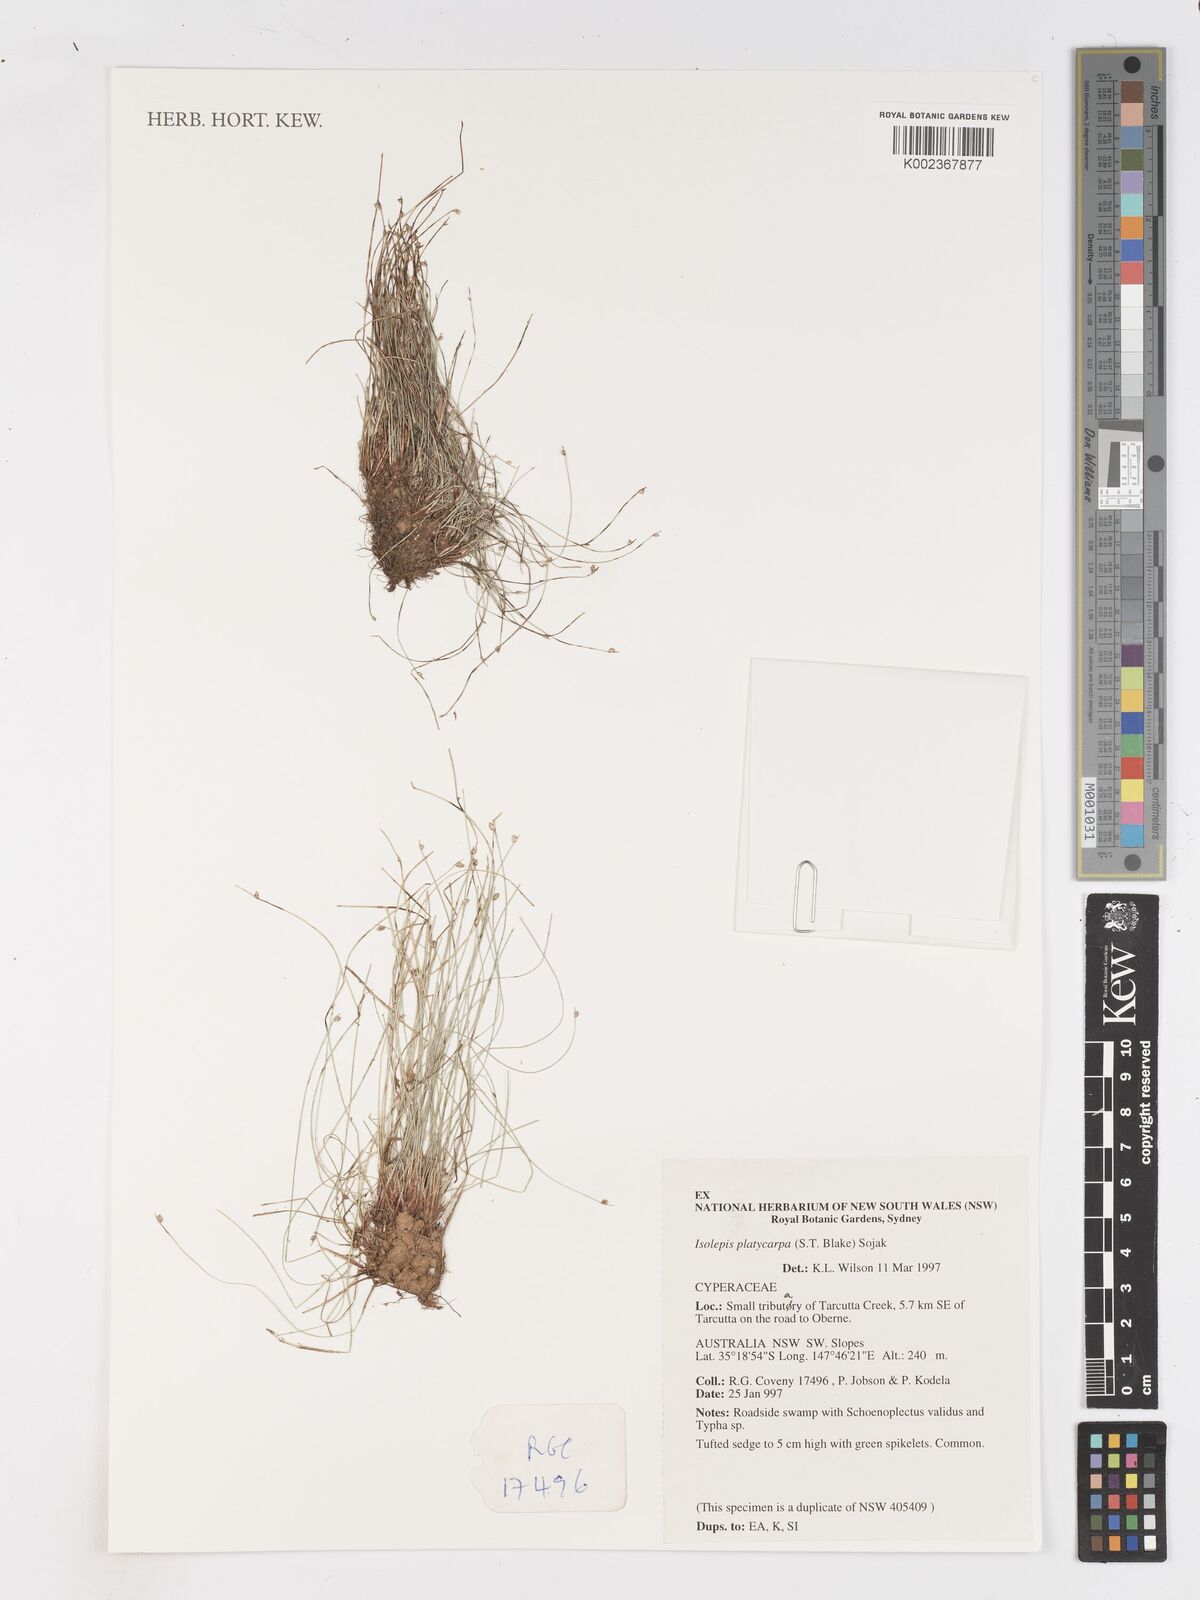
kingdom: Plantae
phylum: Tracheophyta
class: Liliopsida
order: Poales
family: Cyperaceae
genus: Isolepis
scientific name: Isolepis cernua
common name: Slender club-rush
